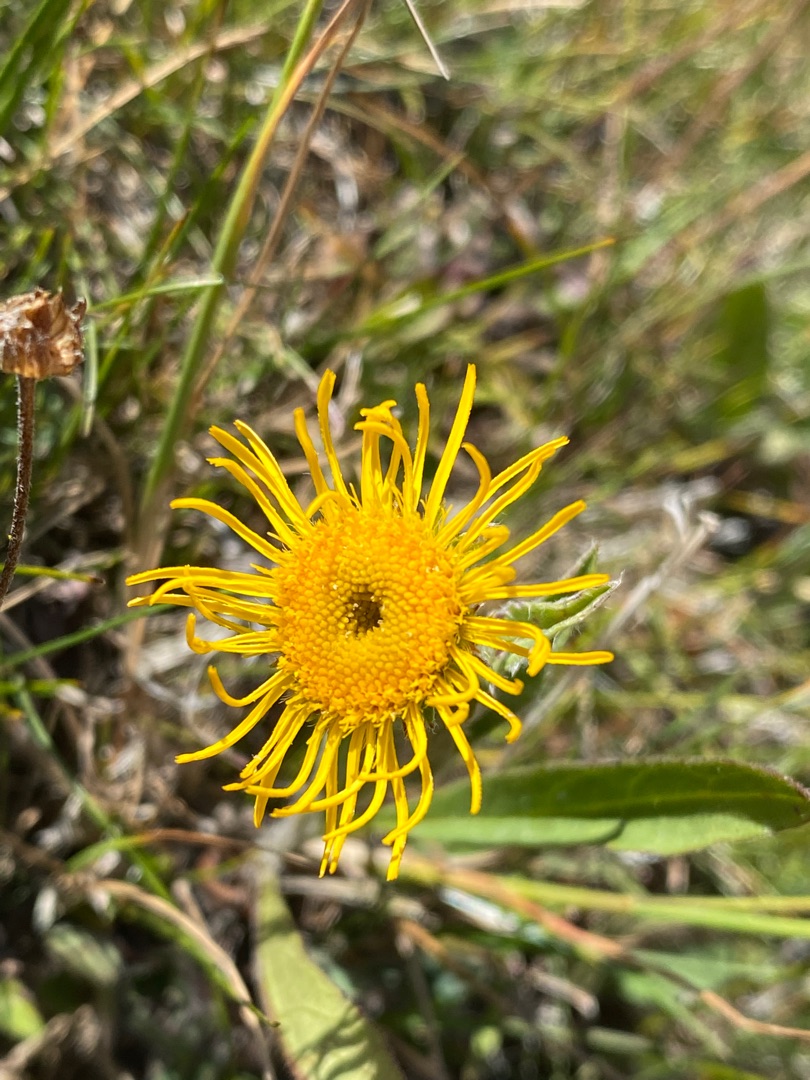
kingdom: Plantae
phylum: Tracheophyta
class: Magnoliopsida
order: Asterales
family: Asteraceae
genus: Pentanema
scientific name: Pentanema britannicum
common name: Soløje-alant
